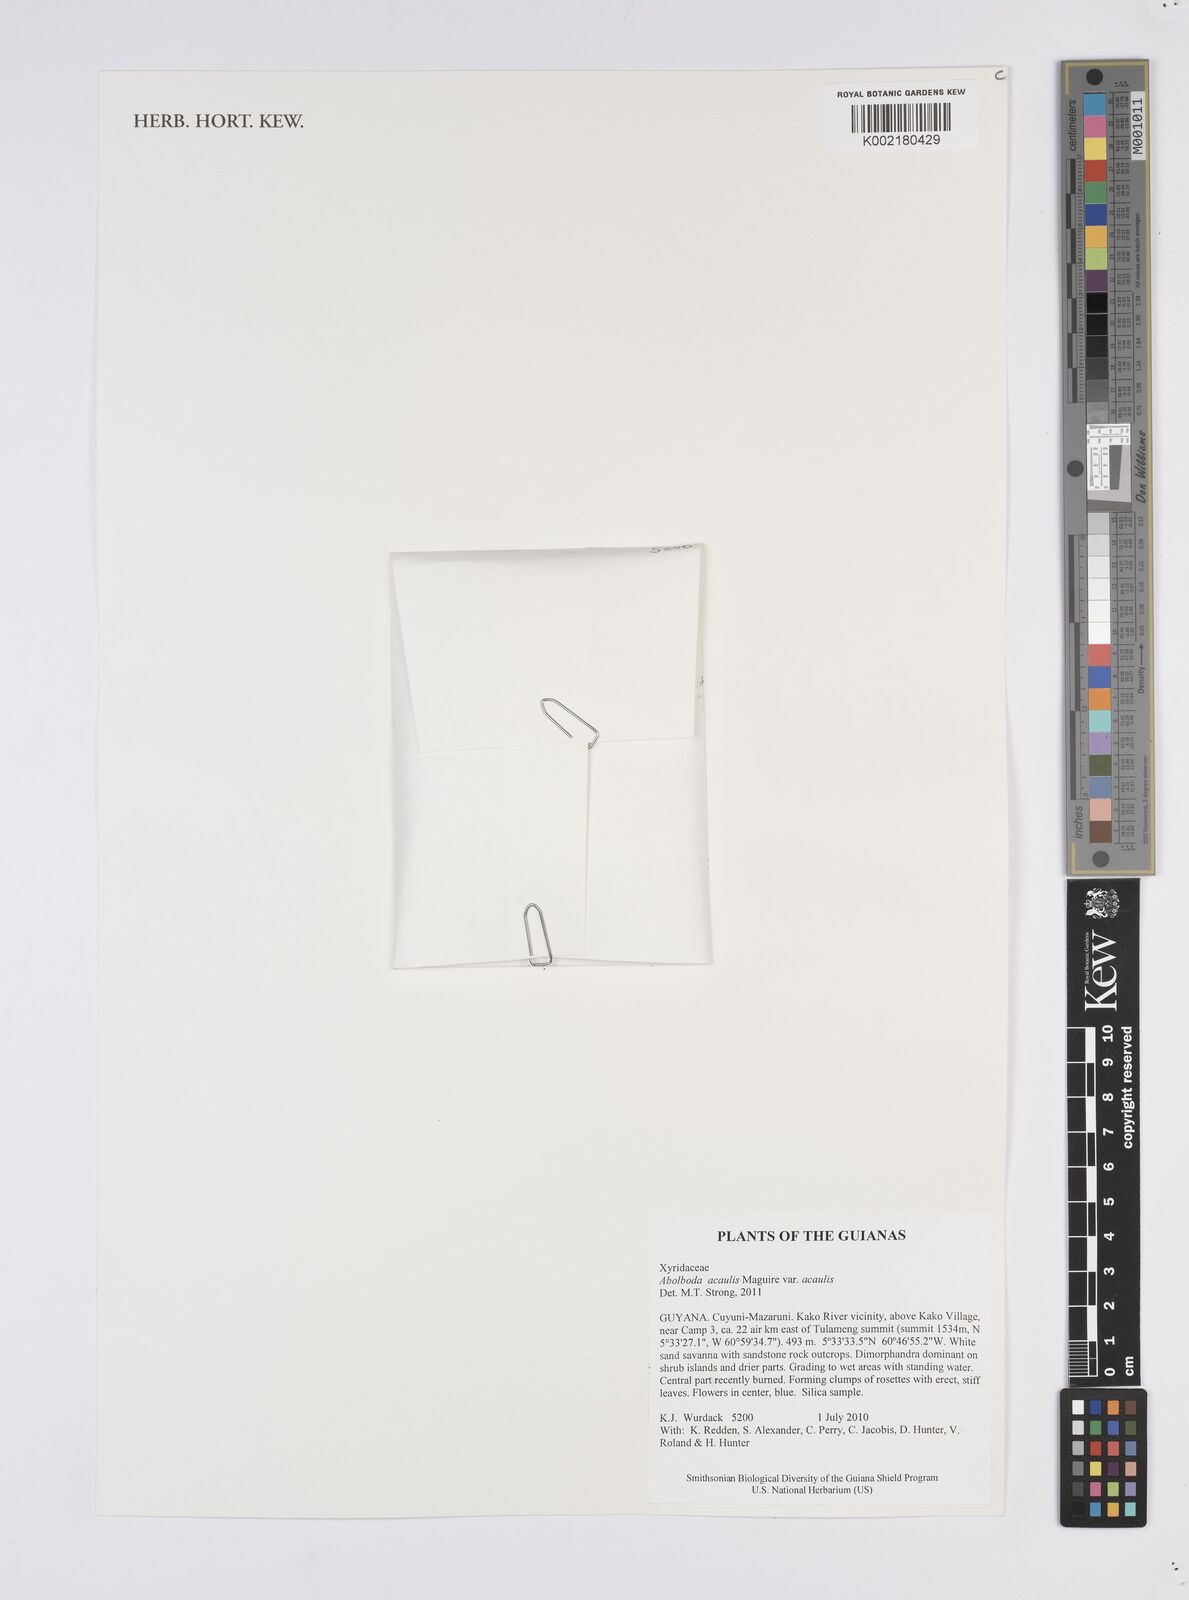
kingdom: Plantae
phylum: Tracheophyta
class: Liliopsida
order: Poales
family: Xyridaceae
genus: Abolboda
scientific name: Abolboda acaulis
